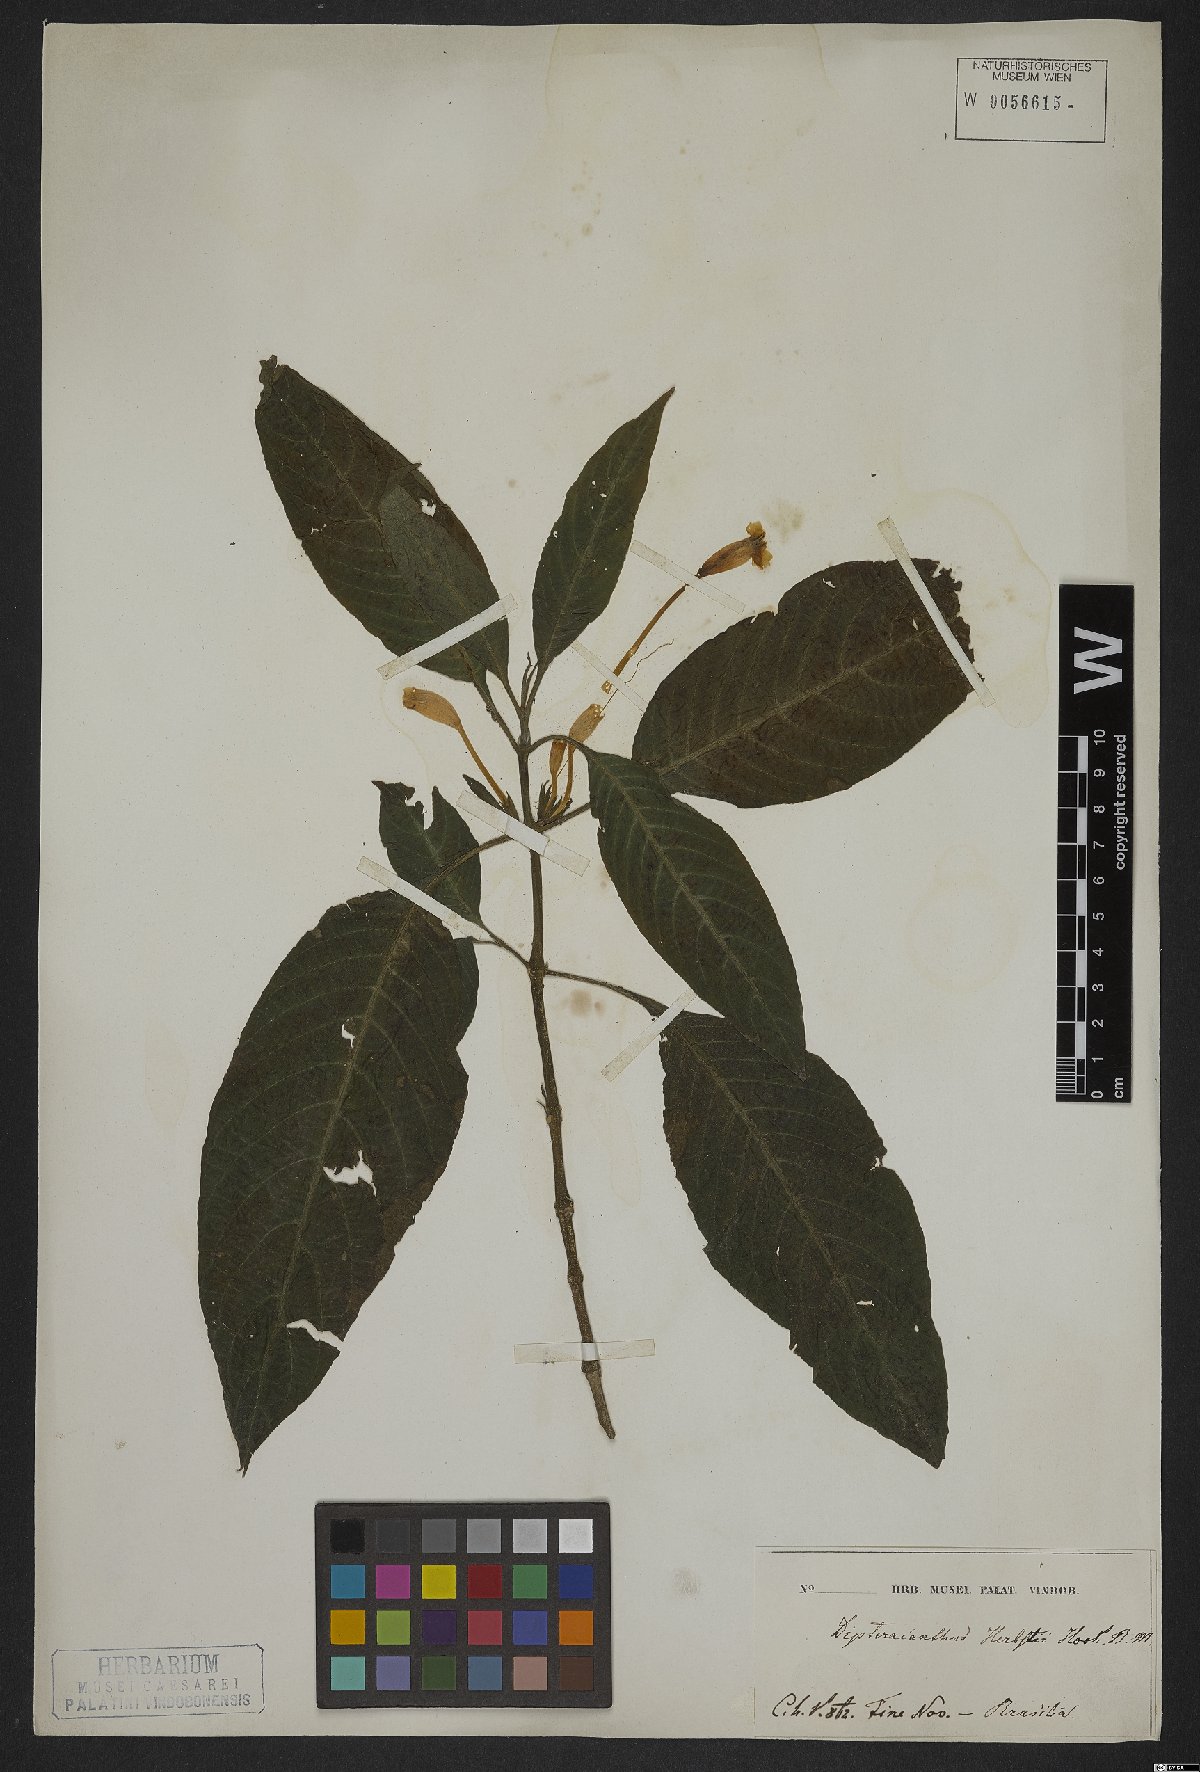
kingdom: Plantae
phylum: Tracheophyta
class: Magnoliopsida
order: Lamiales
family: Acanthaceae
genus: Ruellia
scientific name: Ruellia herbstii
